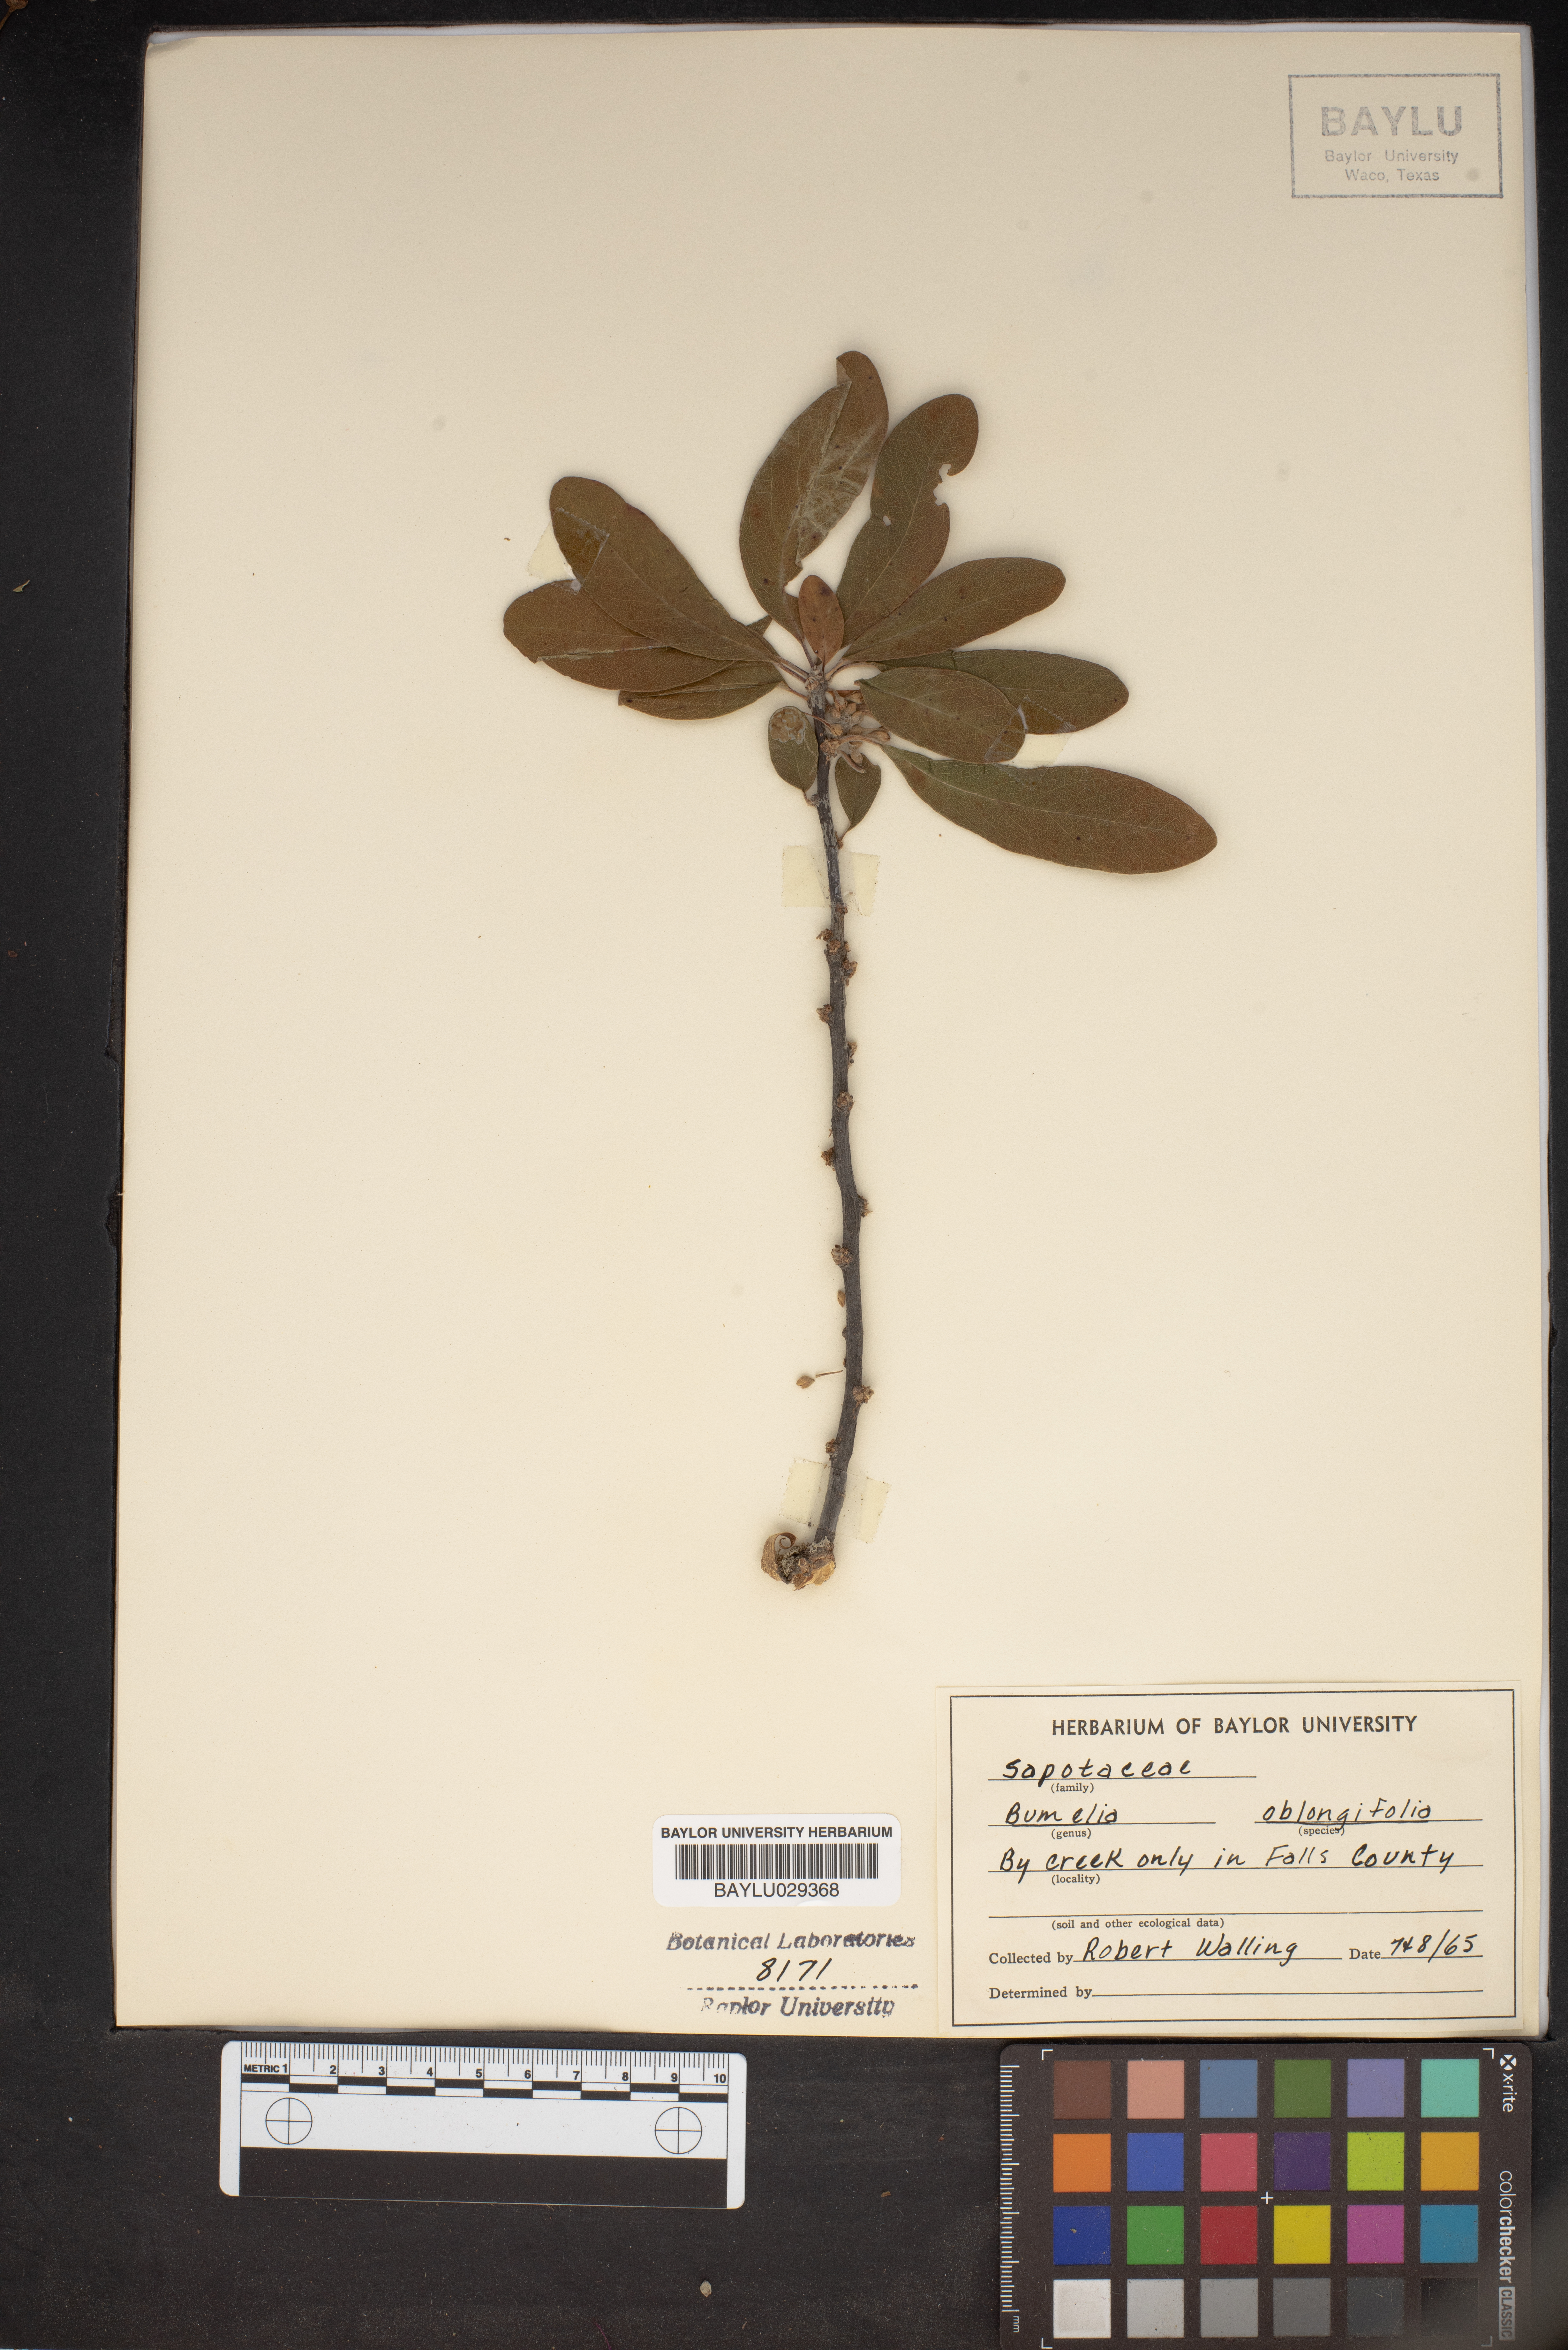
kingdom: Plantae
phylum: Tracheophyta
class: Magnoliopsida
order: Ericales
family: Sapotaceae
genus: Sideroxylon
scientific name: Sideroxylon lanuginosum
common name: Chittamwood
